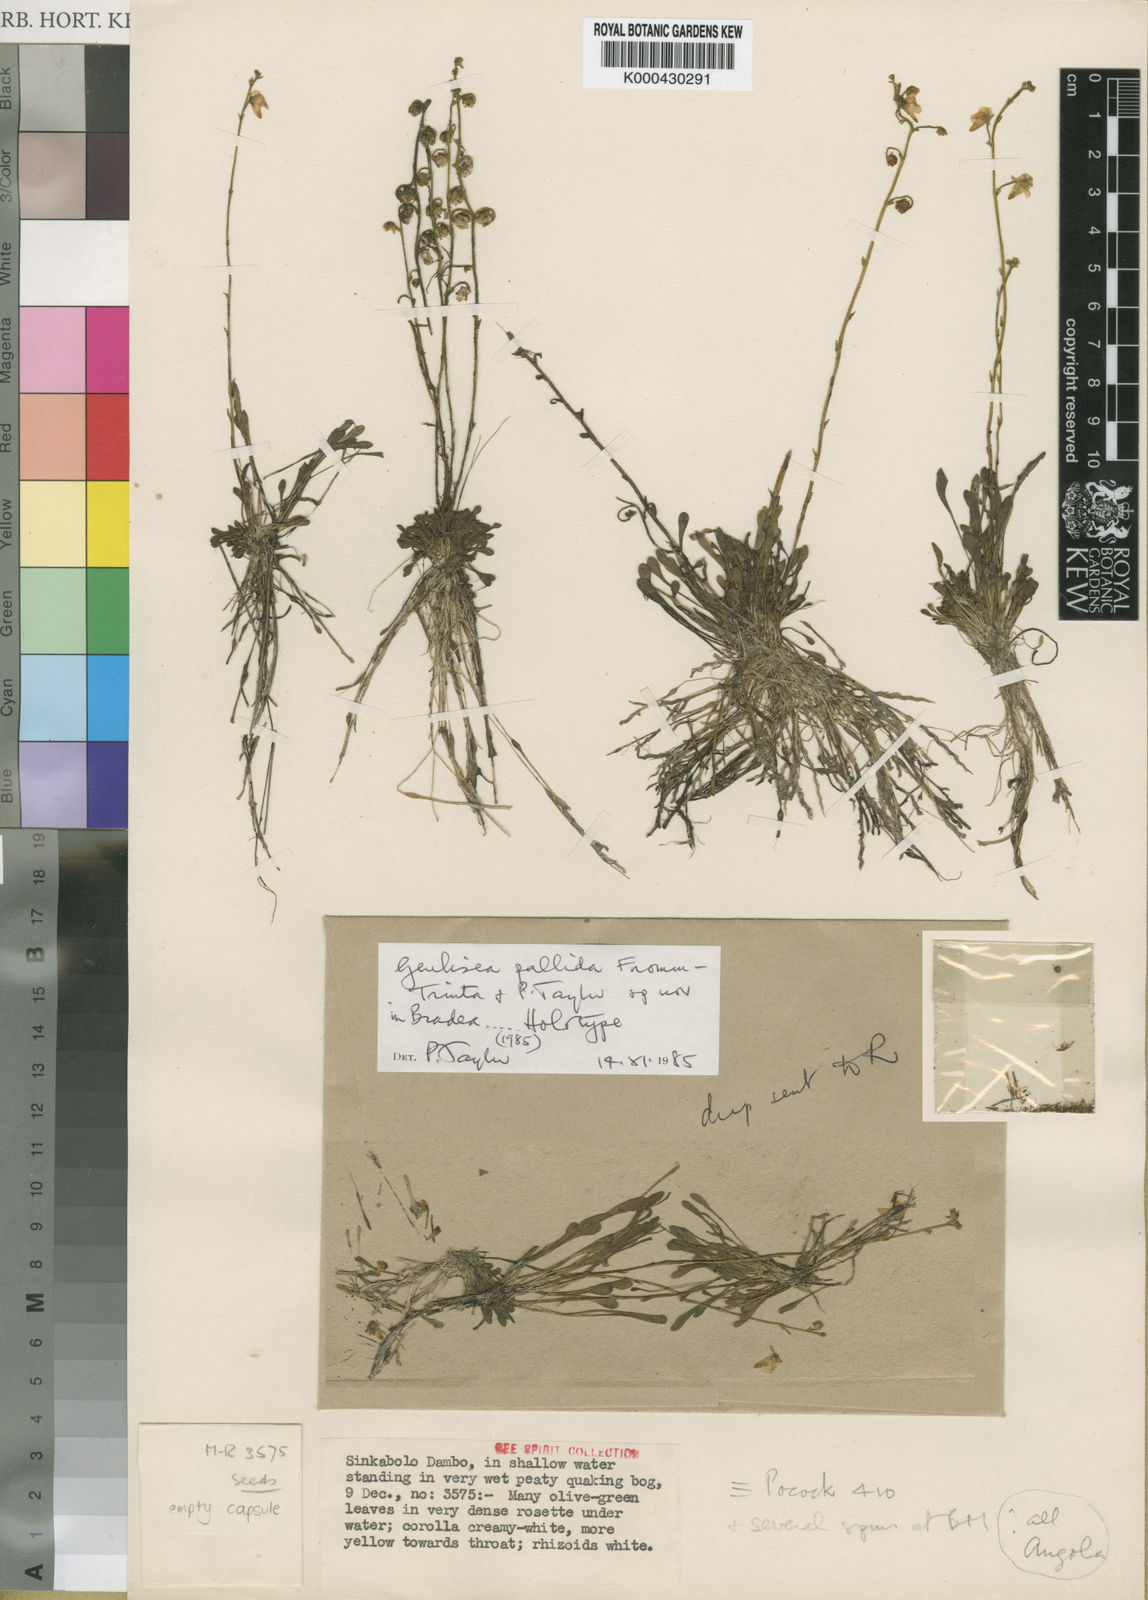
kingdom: Plantae
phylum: Tracheophyta
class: Magnoliopsida
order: Lamiales
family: Lentibulariaceae
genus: Genlisea
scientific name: Genlisea pallida
